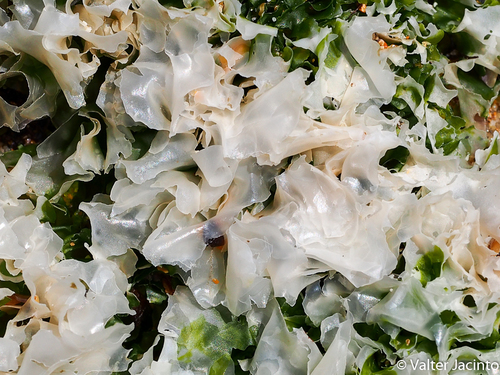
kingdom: Plantae
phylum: Chlorophyta
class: Ulvophyceae
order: Ulvales
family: Ulvaceae
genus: Ulva
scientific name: Ulva
